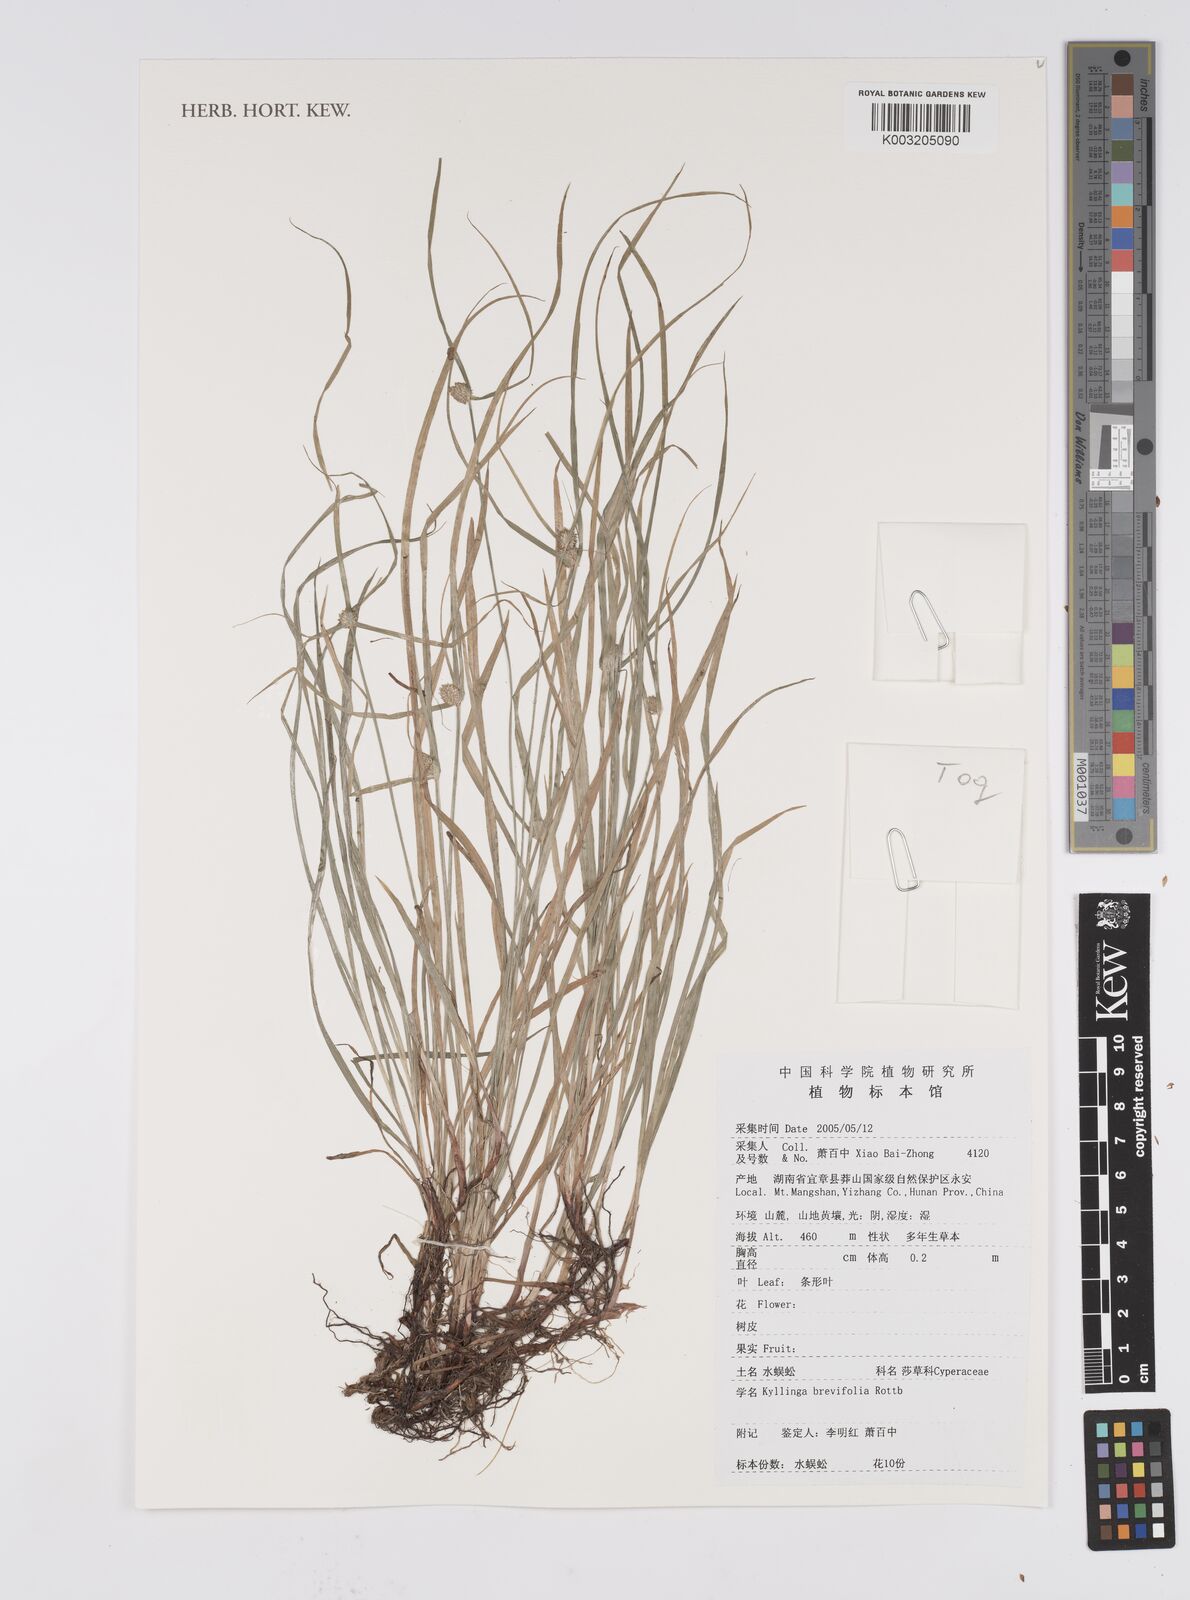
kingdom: Plantae
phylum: Tracheophyta
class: Liliopsida
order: Poales
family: Cyperaceae
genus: Cyperus
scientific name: Cyperus brevifolius
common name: Globe kyllinga
